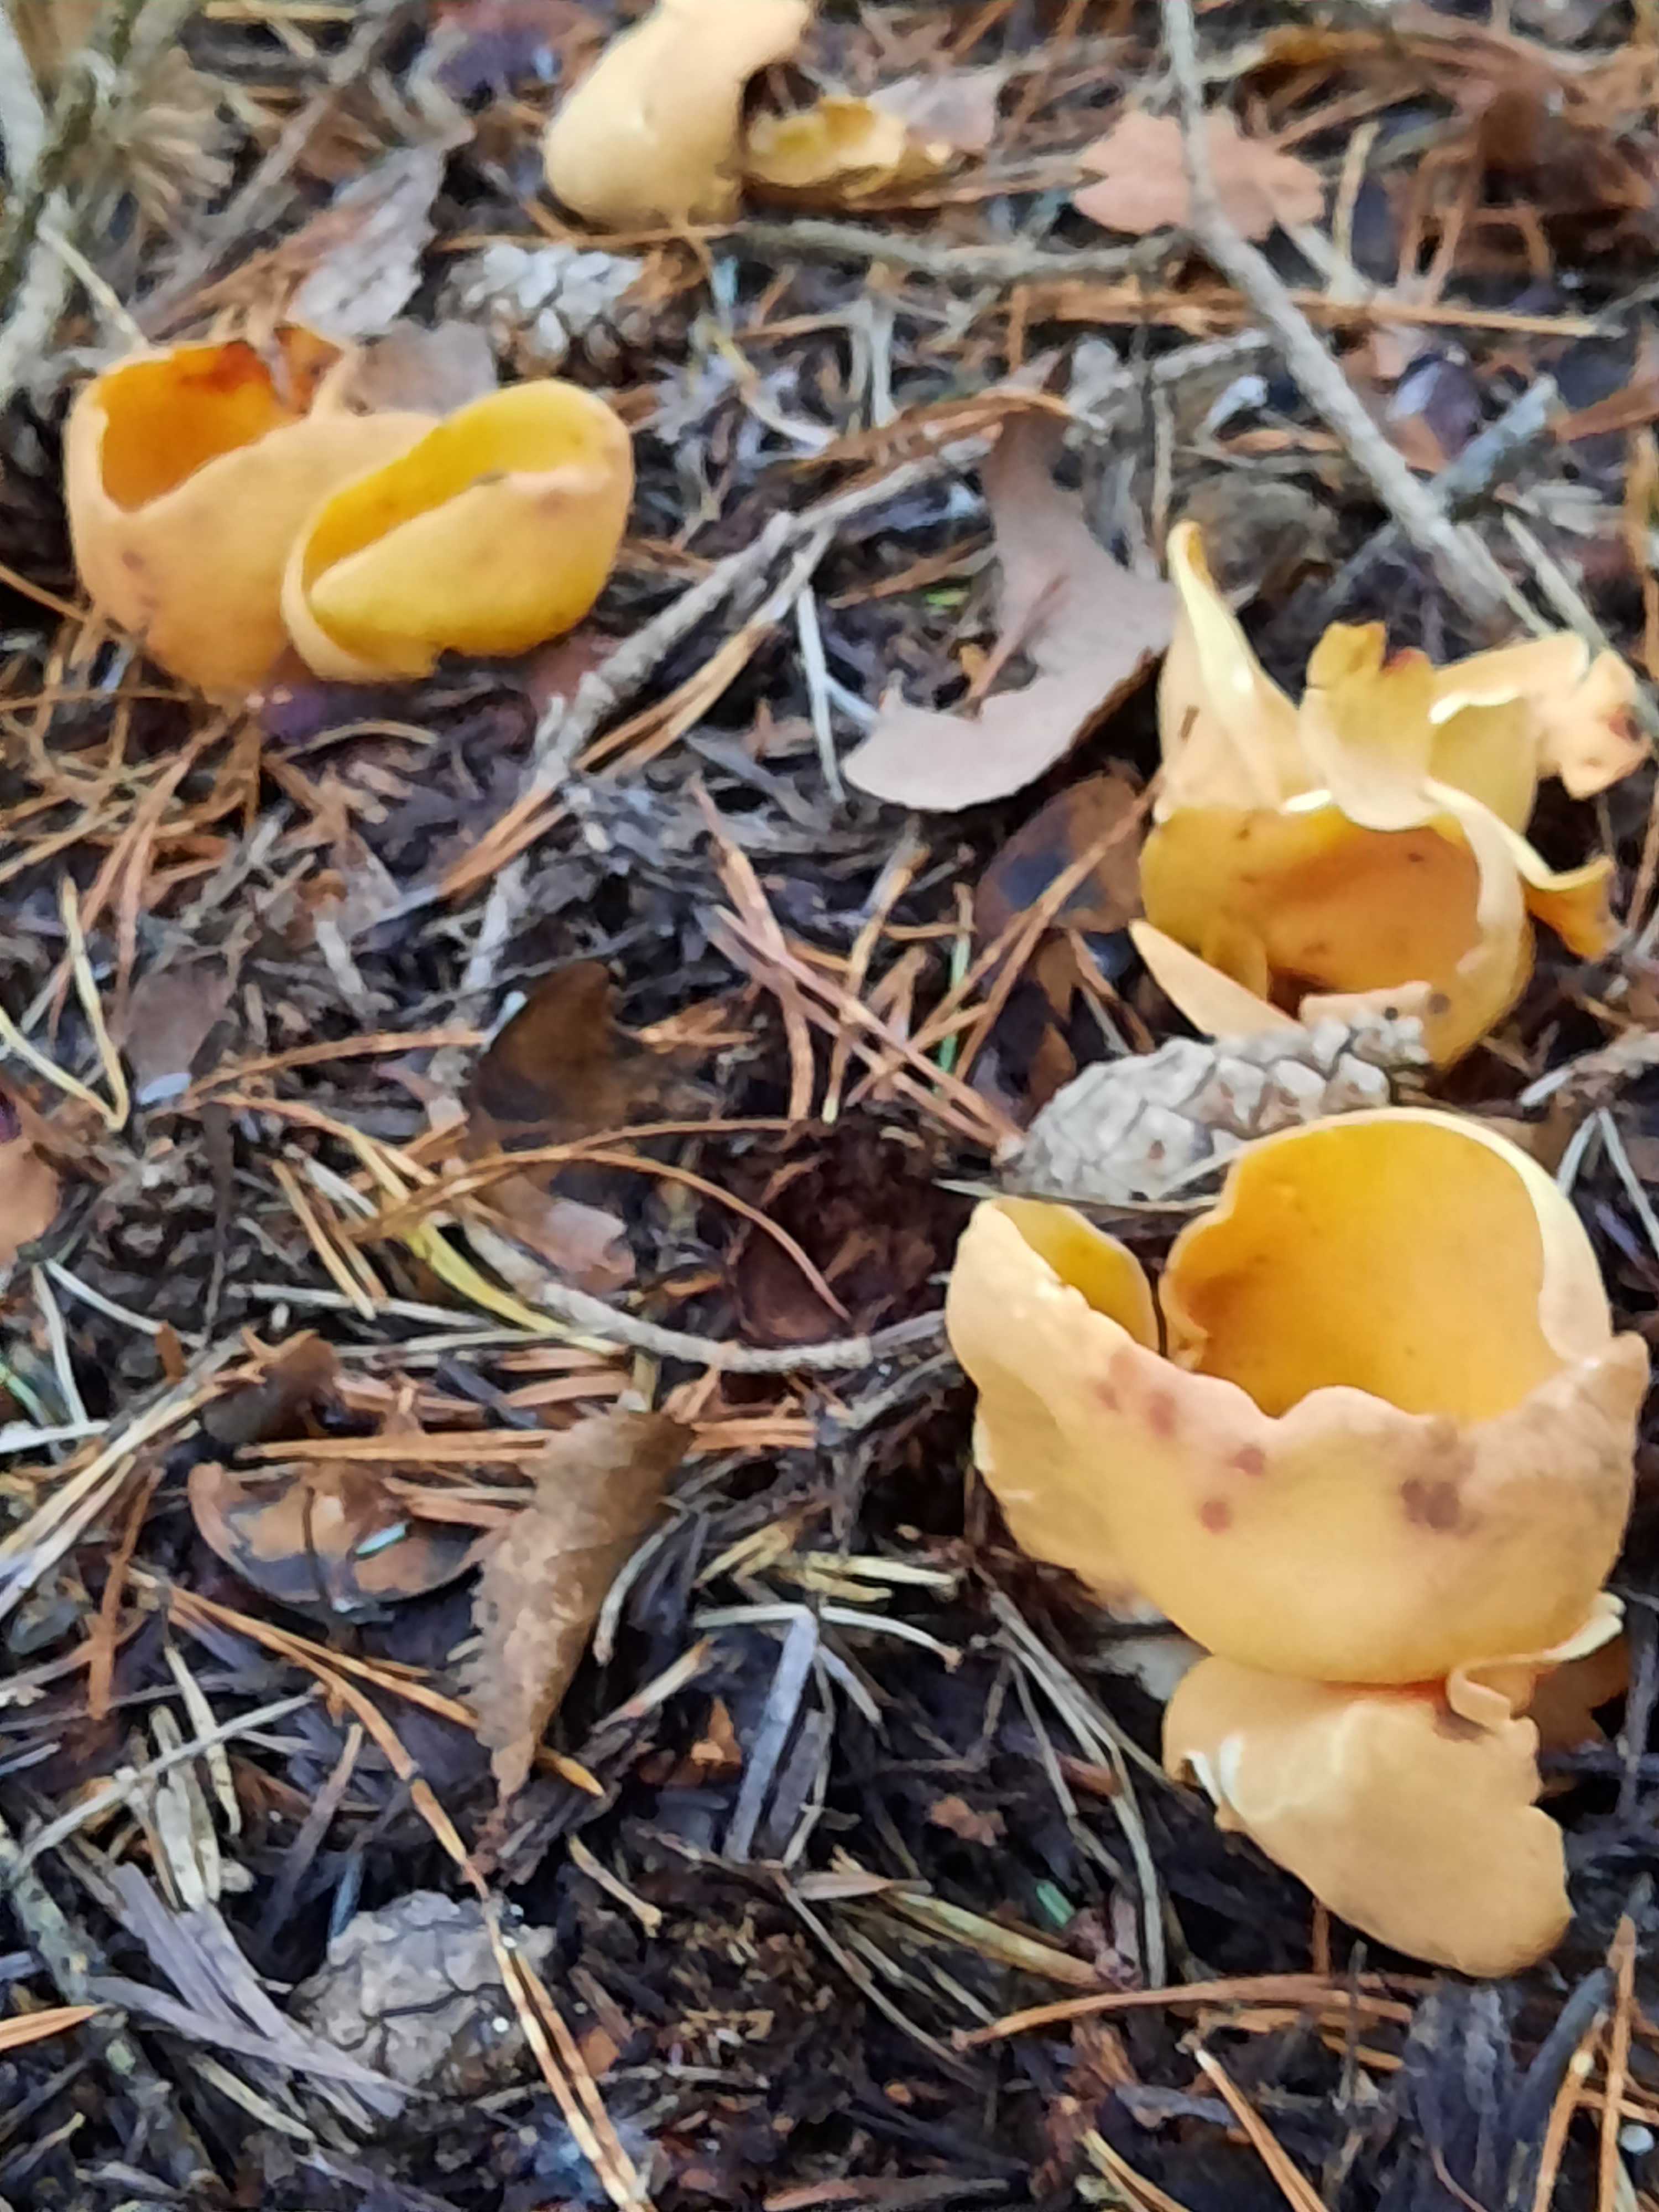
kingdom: Fungi
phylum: Ascomycota
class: Pezizomycetes
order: Pezizales
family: Otideaceae
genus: Otidea
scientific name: Otidea onotica
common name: æsel-ørebæger
